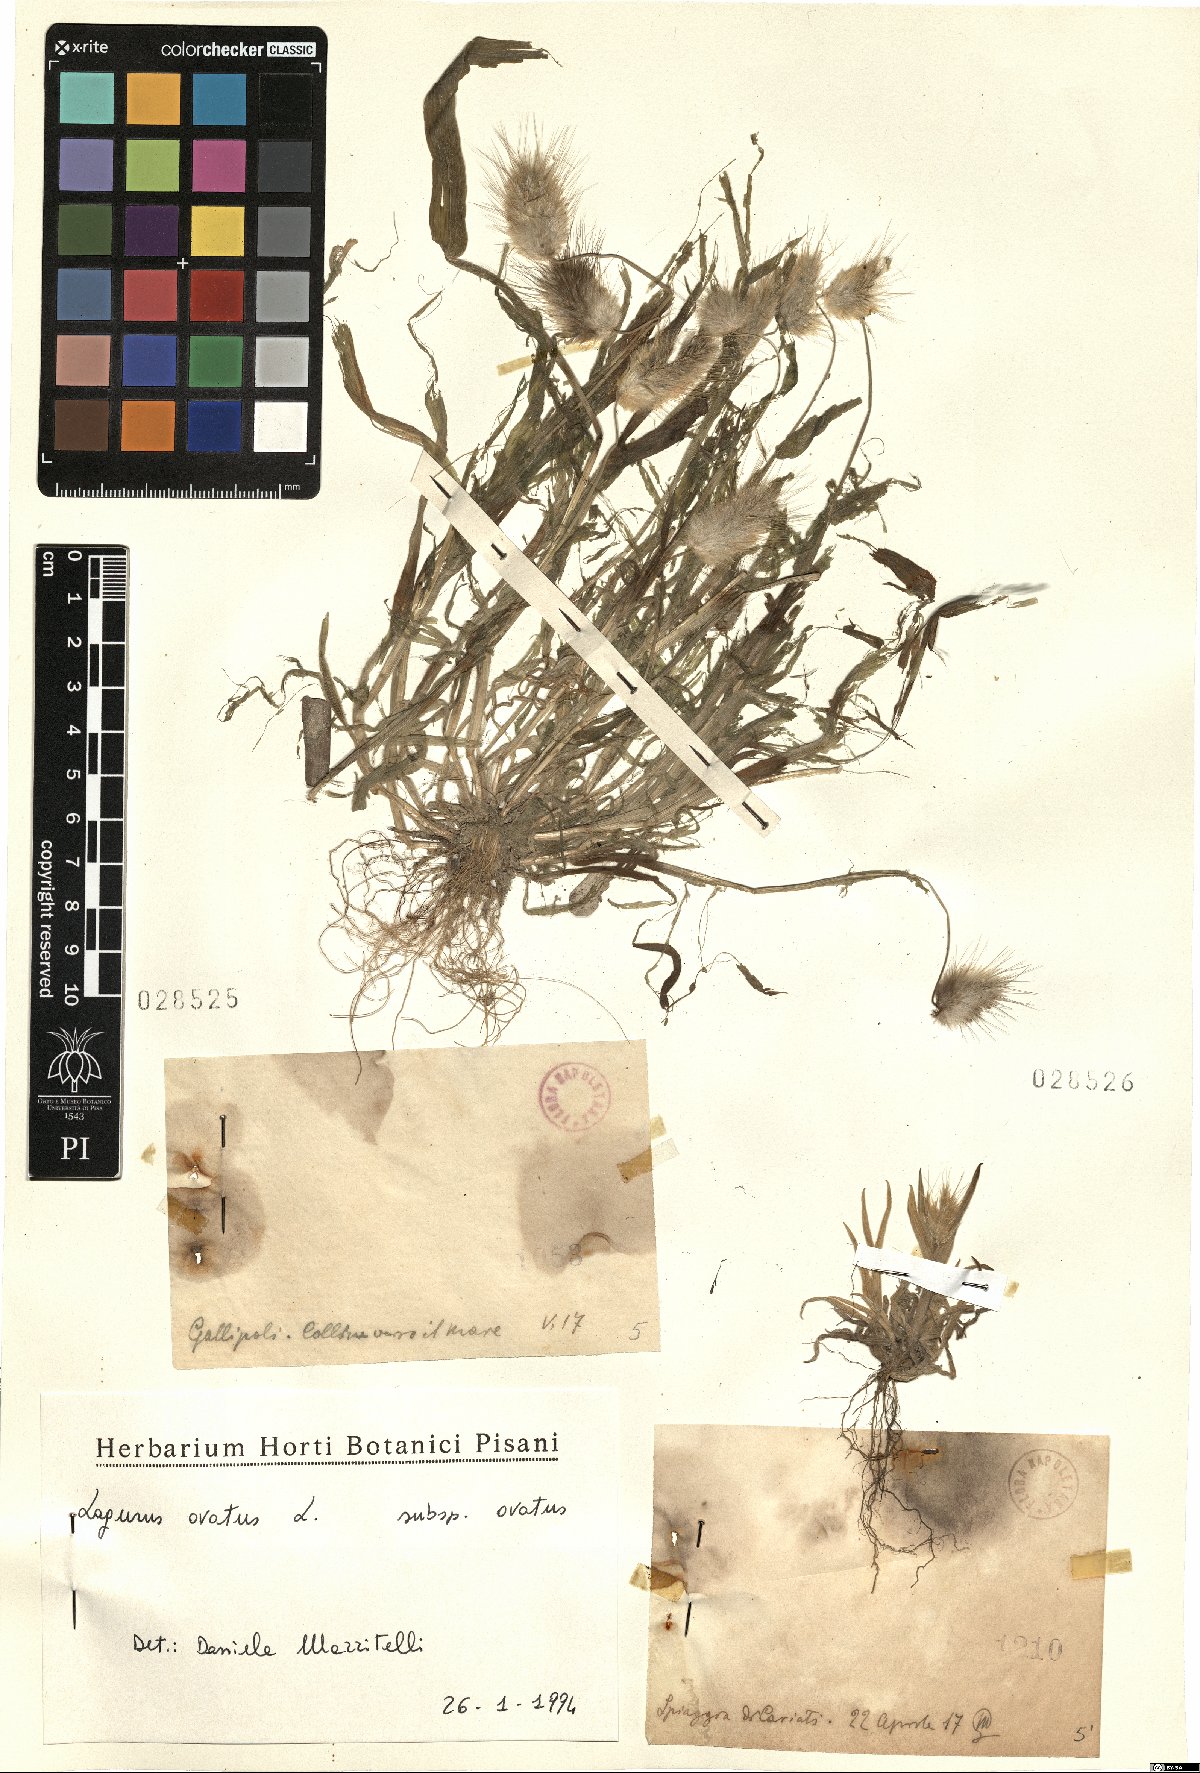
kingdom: Plantae
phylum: Tracheophyta
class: Liliopsida
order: Poales
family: Poaceae
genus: Lagurus
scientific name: Lagurus ovatus
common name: Hare's-tail
